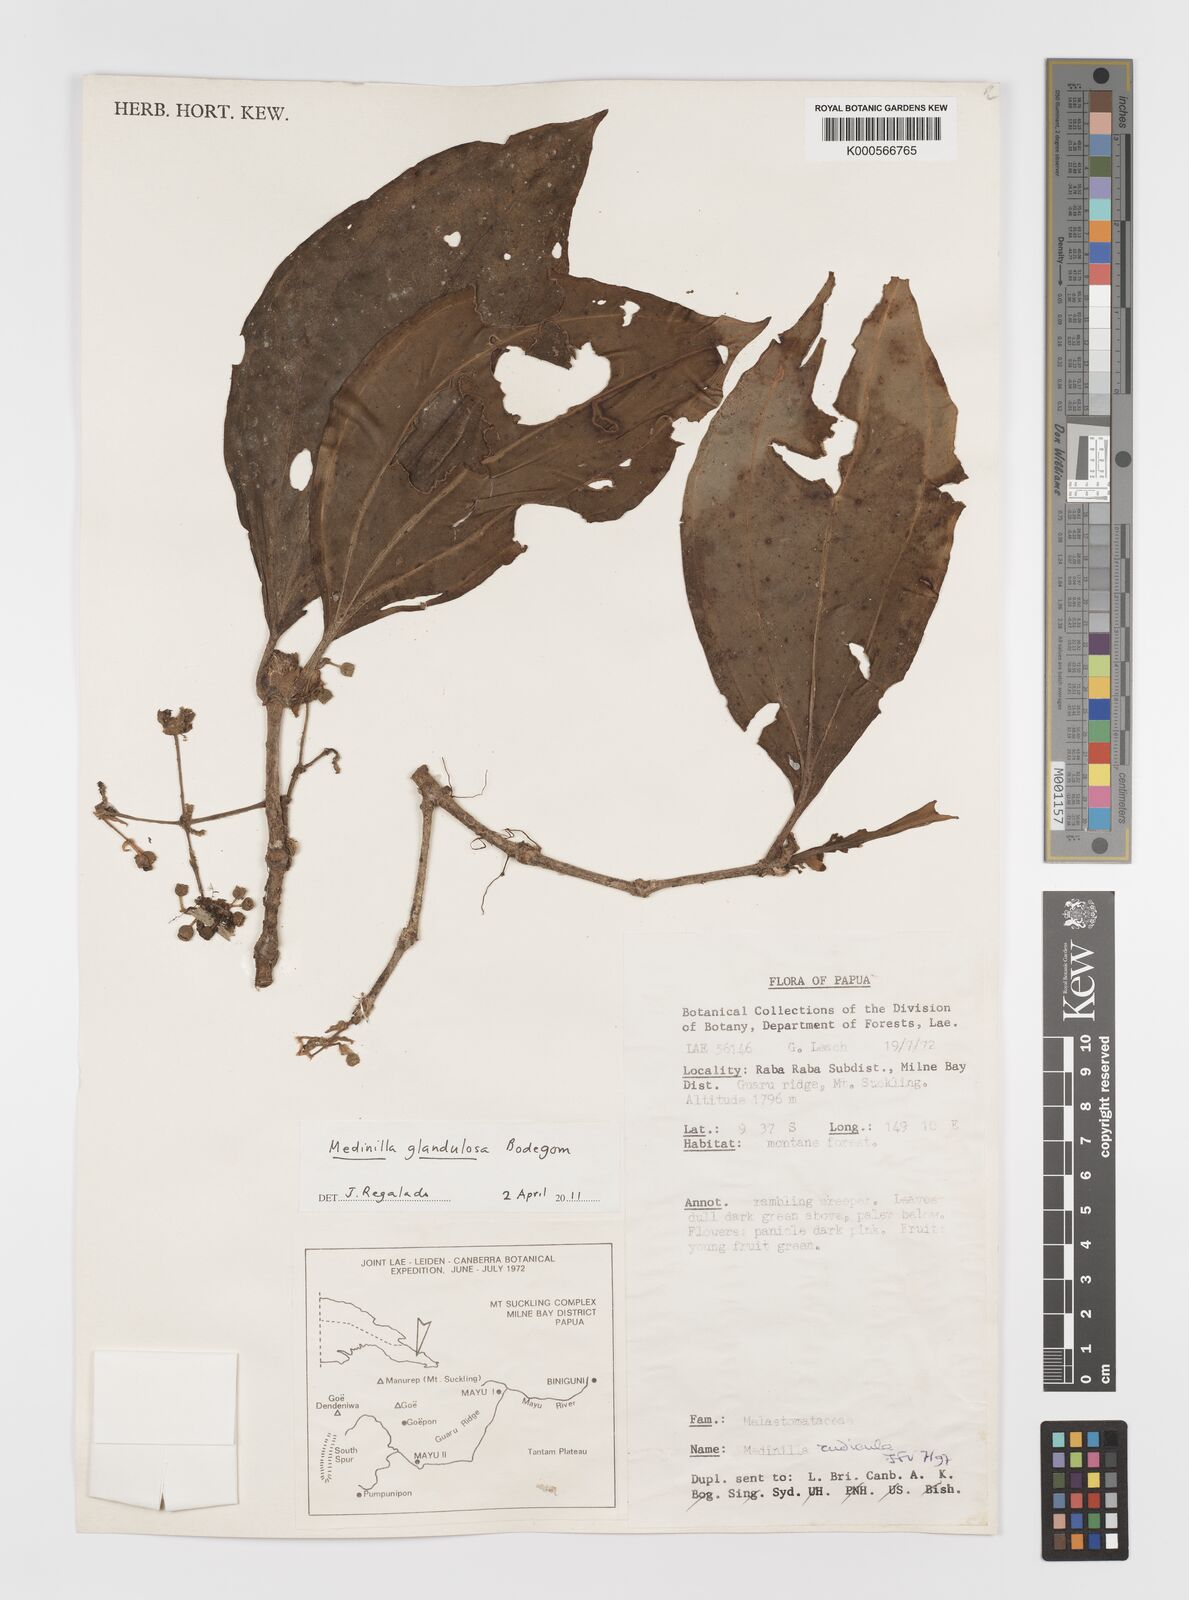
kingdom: Plantae
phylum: Tracheophyta
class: Magnoliopsida
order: Myrtales
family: Melastomataceae
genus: Medinilla
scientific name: Medinilla glandulosa
